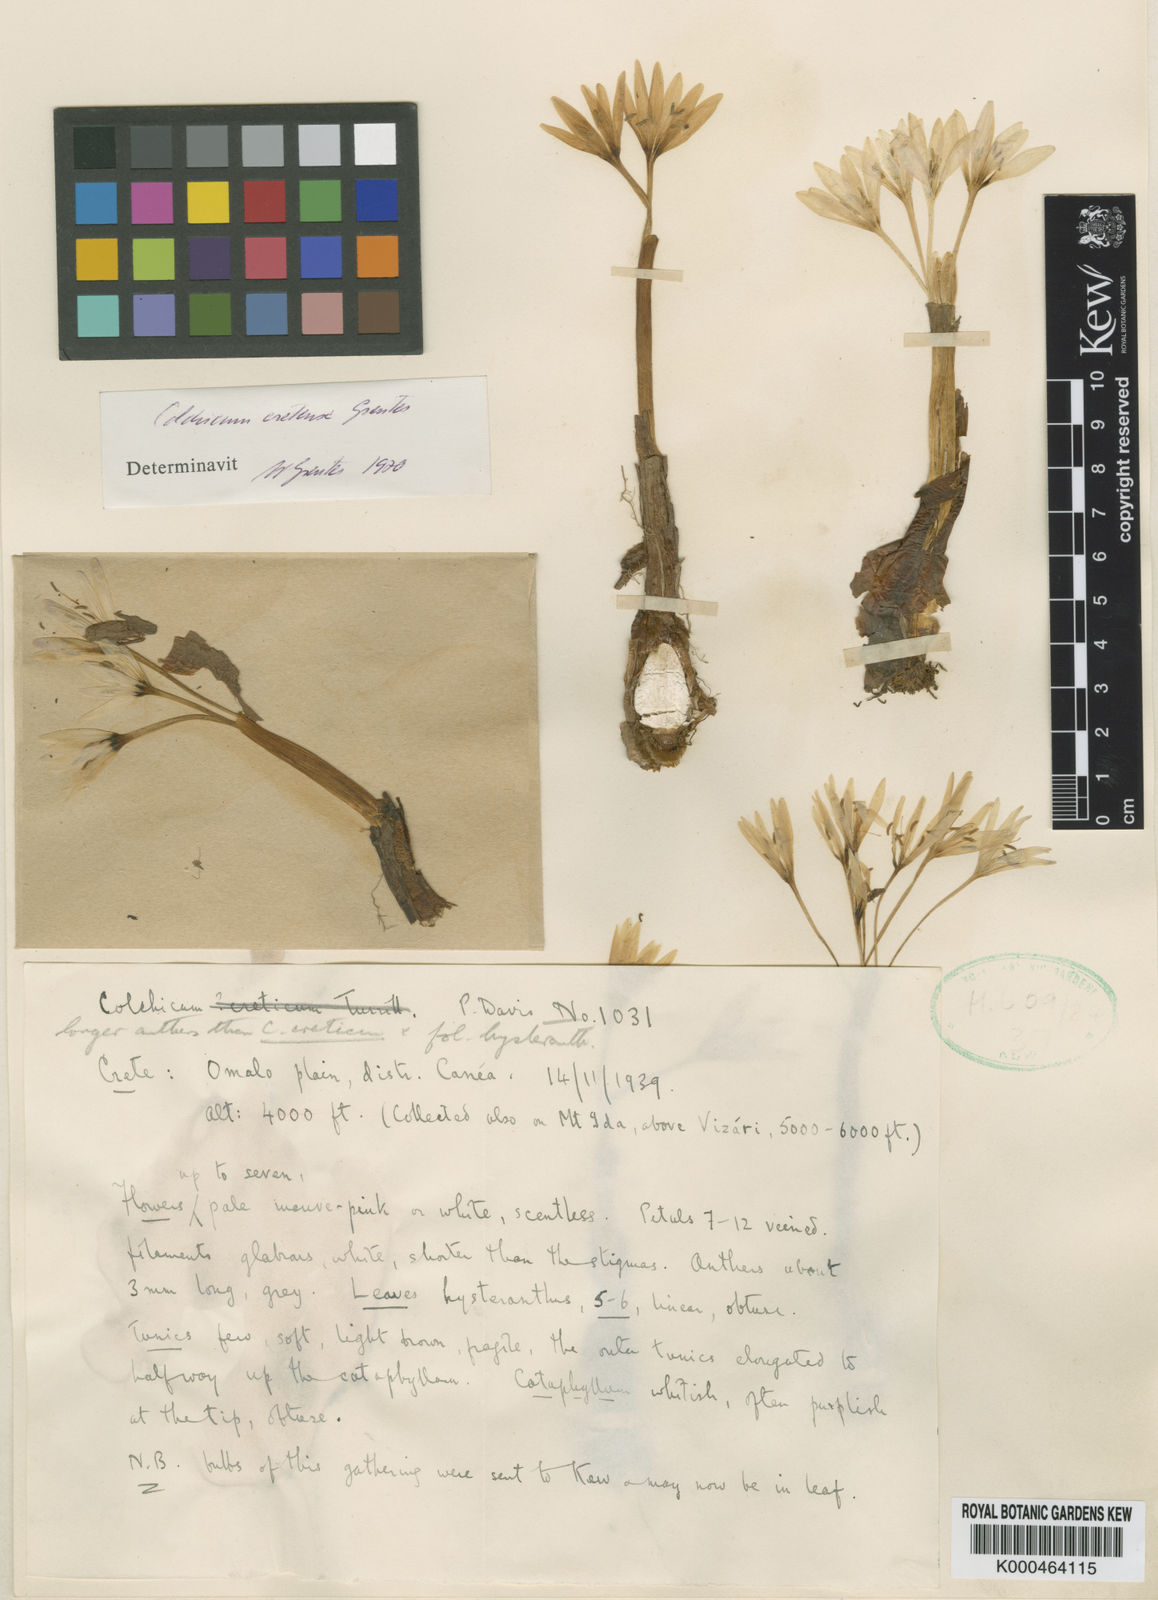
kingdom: Plantae
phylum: Tracheophyta
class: Liliopsida
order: Liliales
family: Colchicaceae
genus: Colchicum
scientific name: Colchicum cupanii
